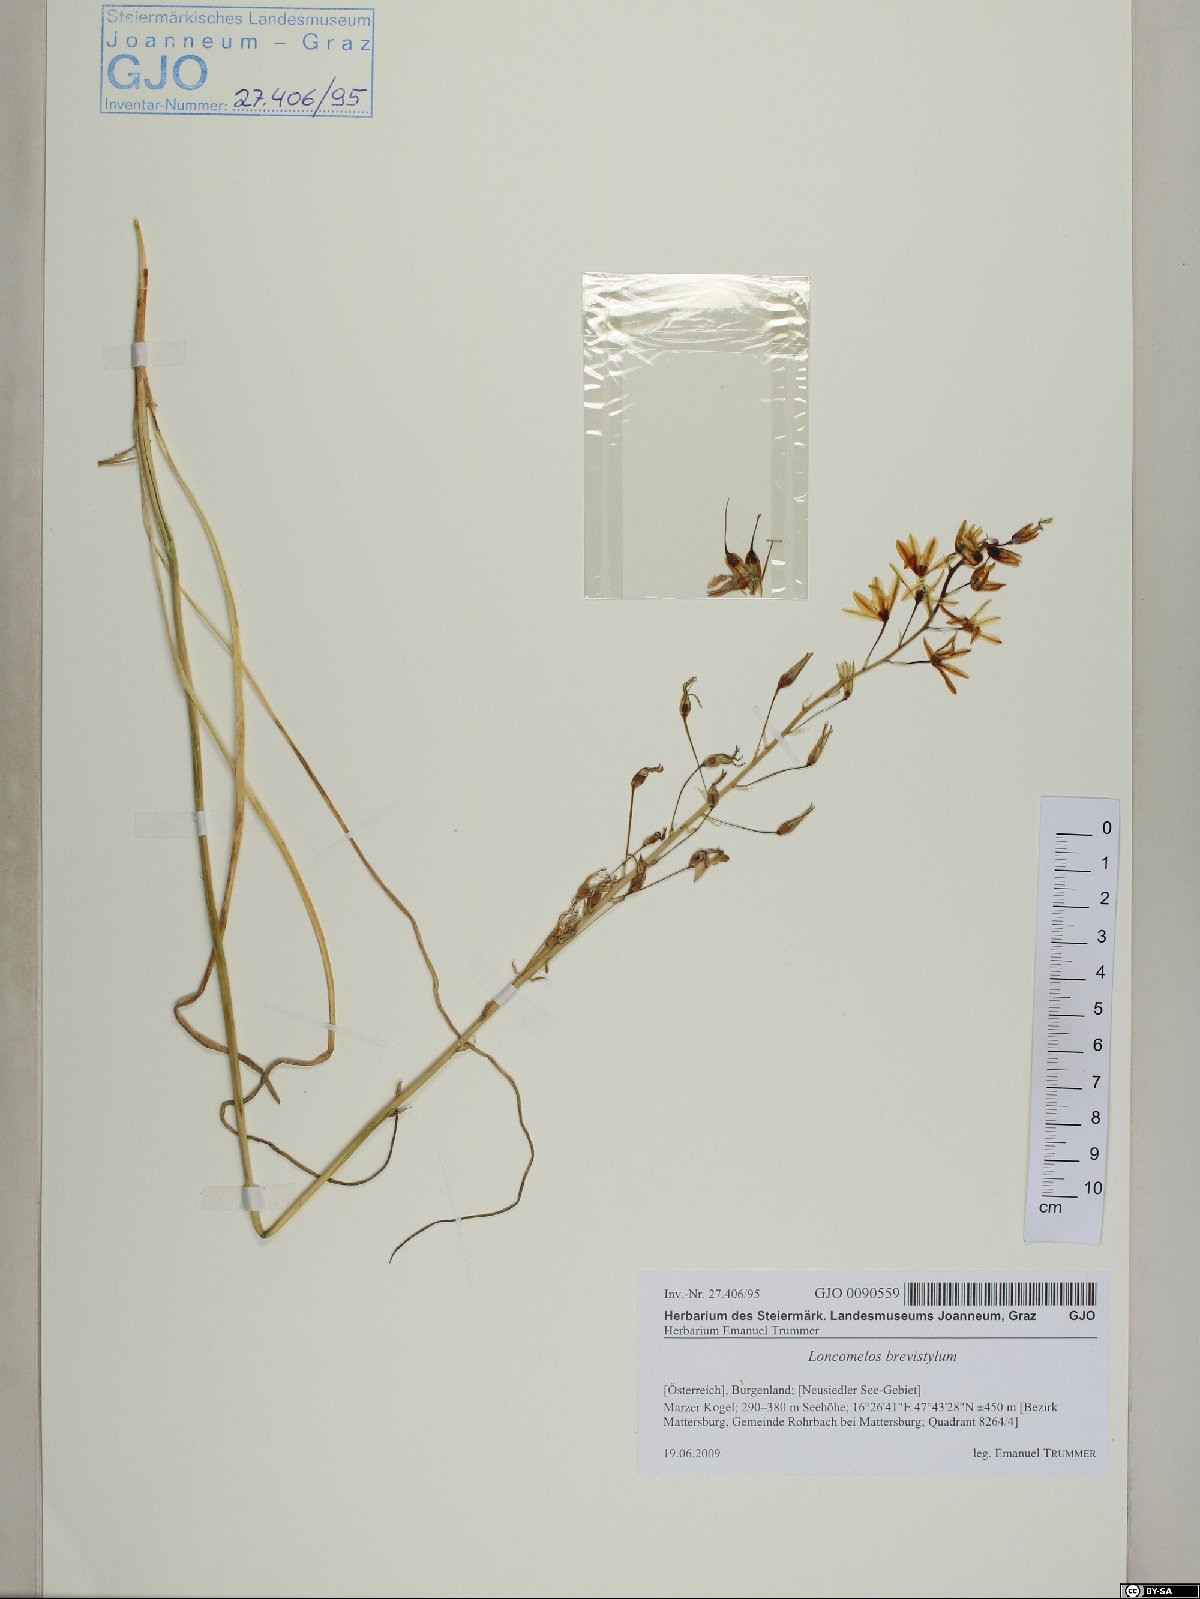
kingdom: Plantae
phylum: Tracheophyta
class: Liliopsida
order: Asparagales
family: Asparagaceae
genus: Ornithogalum
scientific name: Ornithogalum pyramidale
